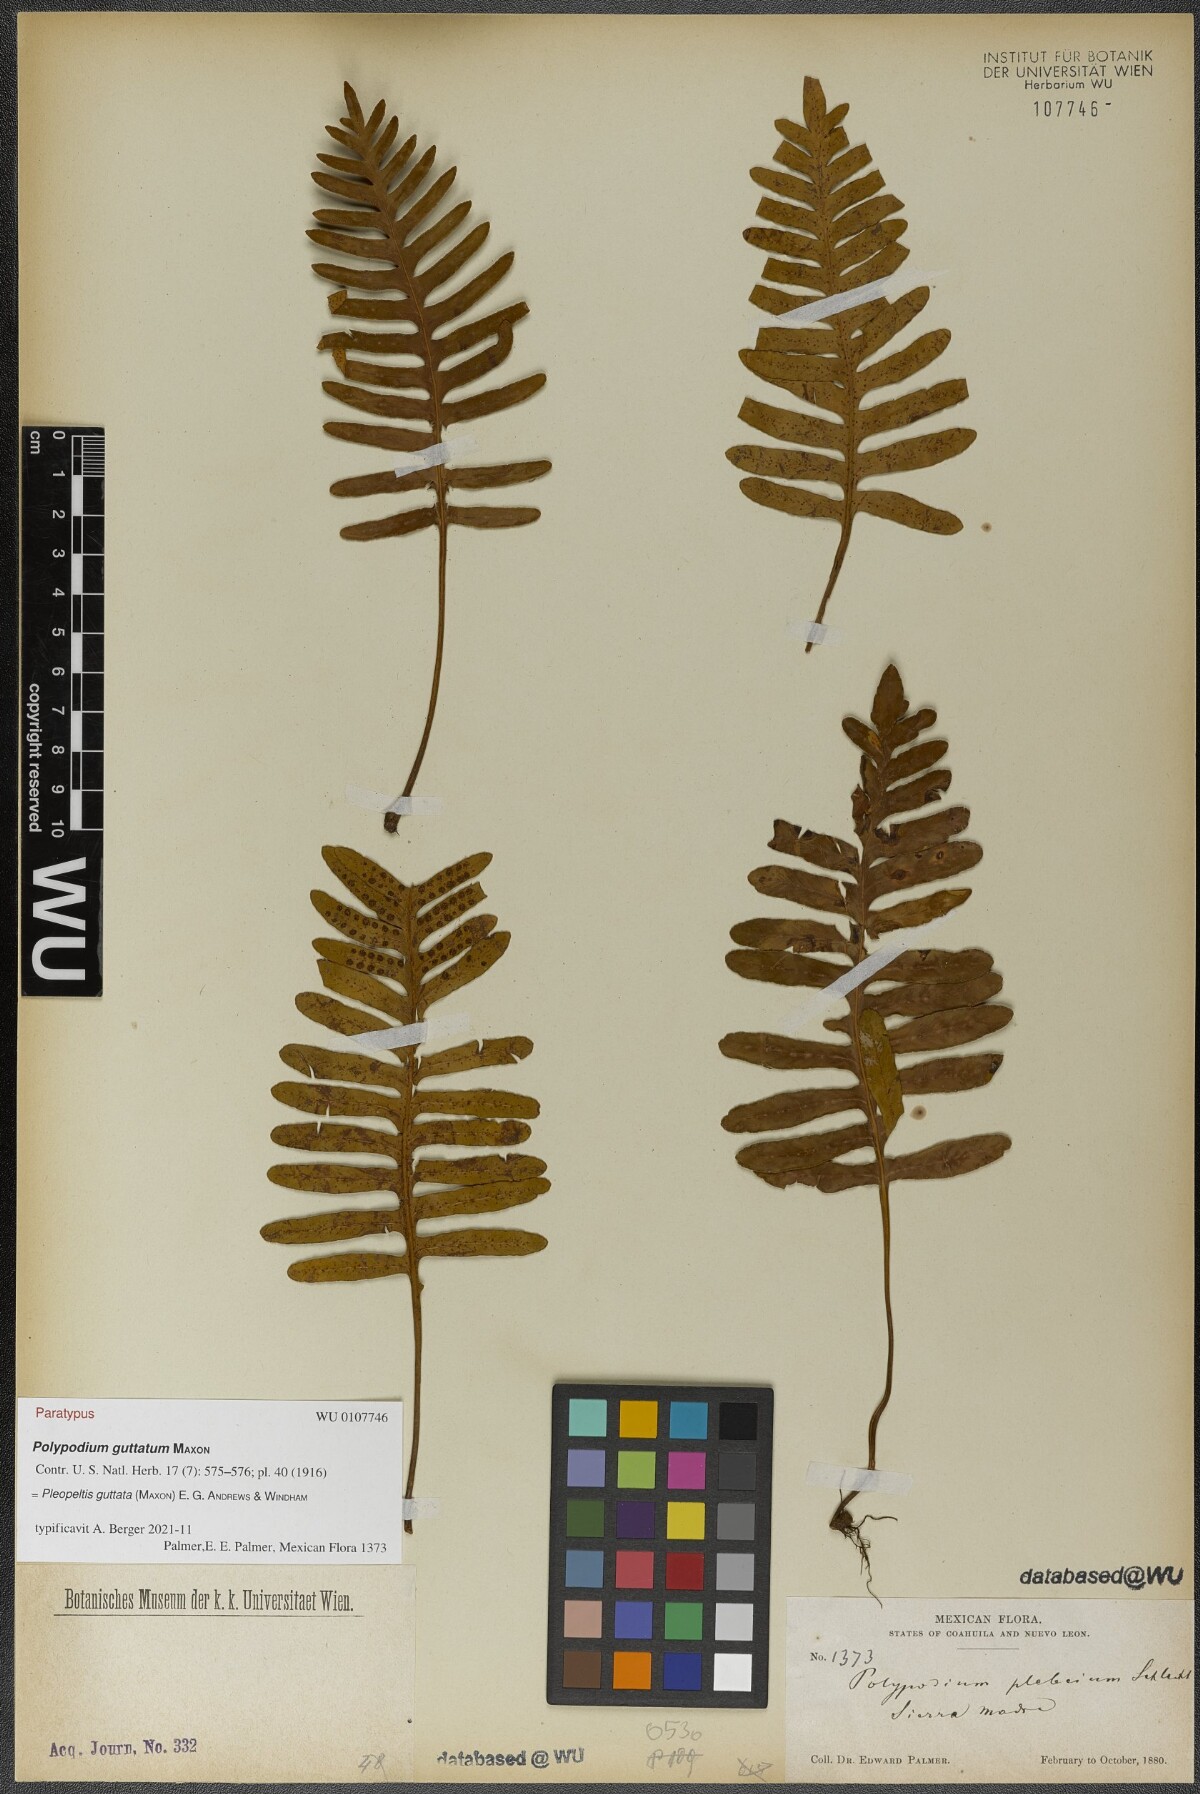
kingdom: Plantae
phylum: Tracheophyta
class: Polypodiopsida
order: Polypodiales
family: Polypodiaceae
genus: Pleopeltis
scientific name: Pleopeltis guttata
